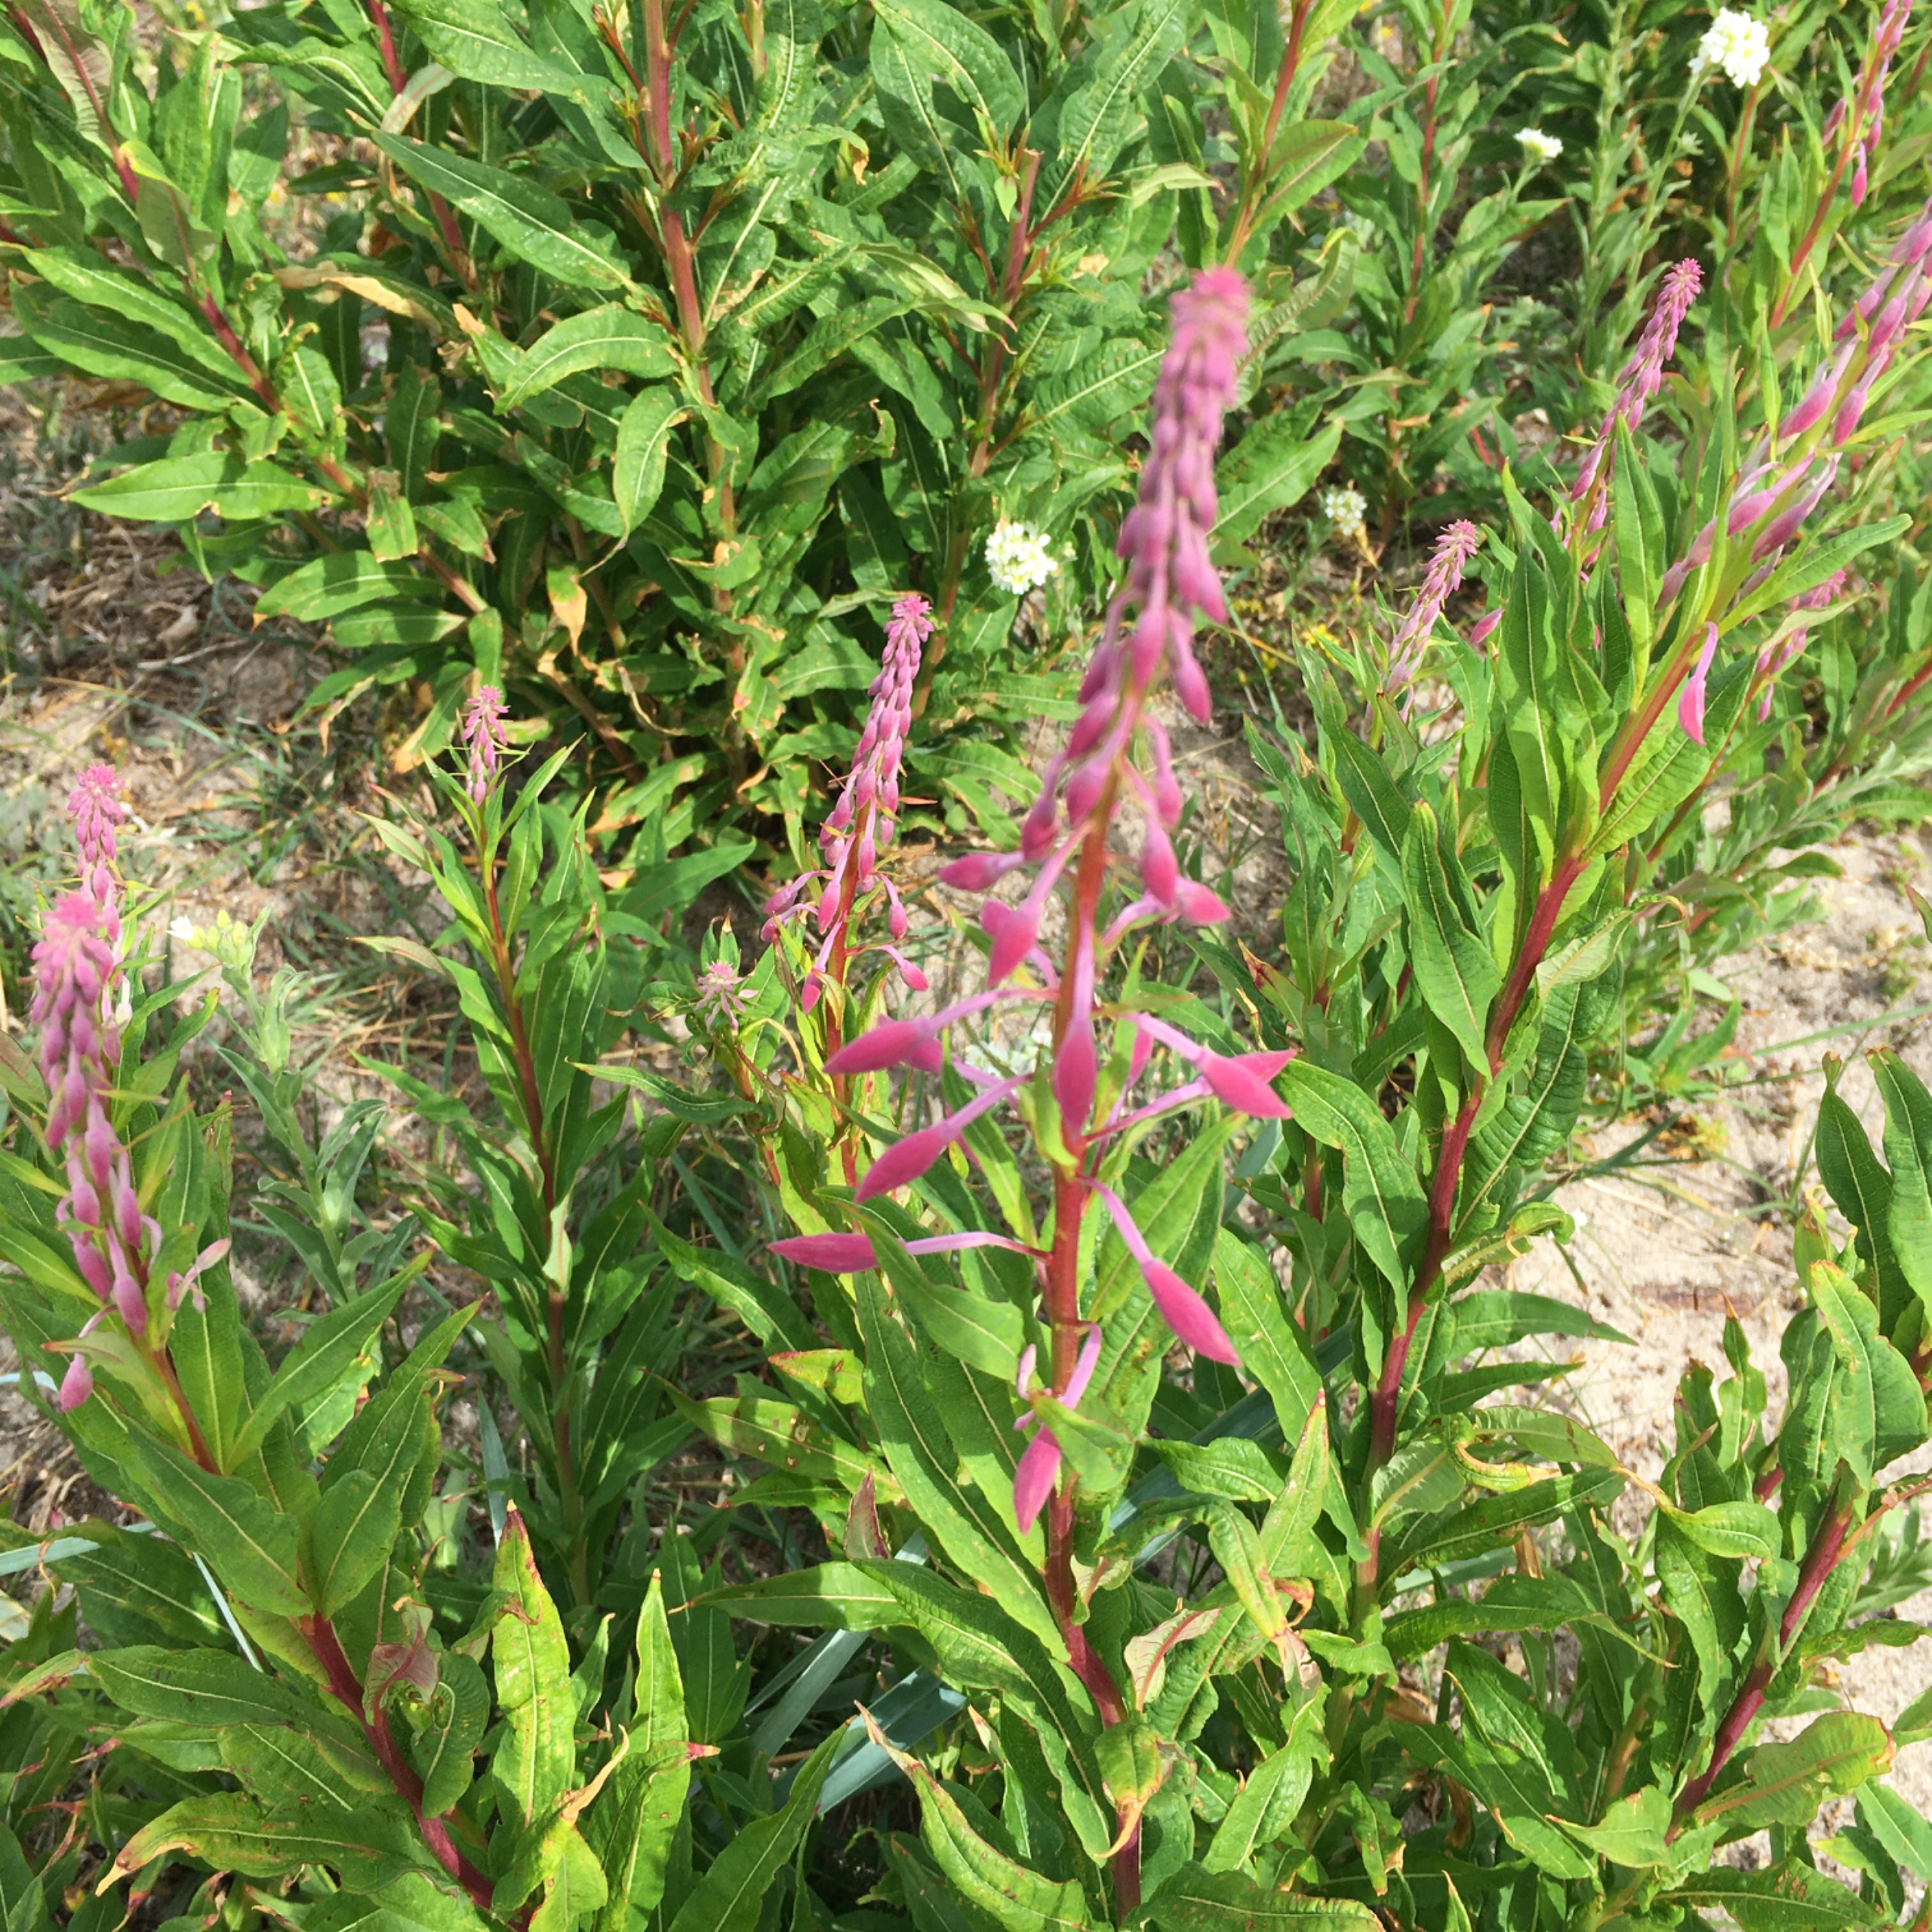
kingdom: Plantae
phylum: Tracheophyta
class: Magnoliopsida
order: Myrtales
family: Onagraceae
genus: Chamaenerion
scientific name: Chamaenerion angustifolium
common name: Gederams
